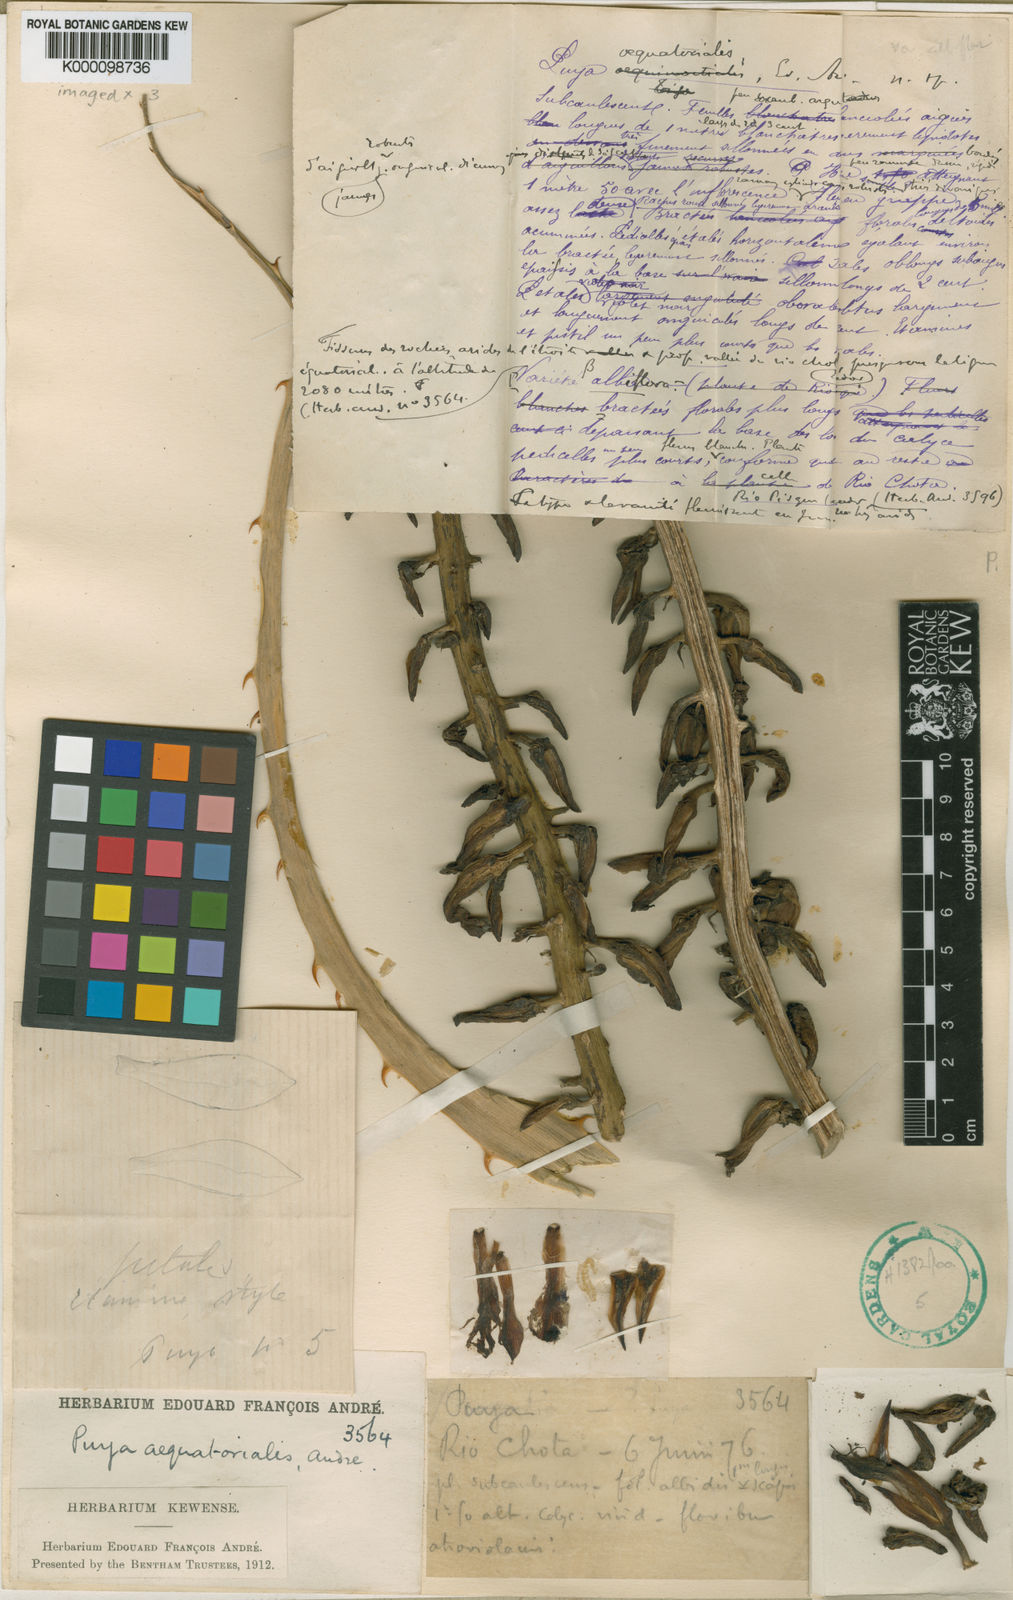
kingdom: Plantae
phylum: Tracheophyta
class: Liliopsida
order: Poales
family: Bromeliaceae
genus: Puya
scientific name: Puya
